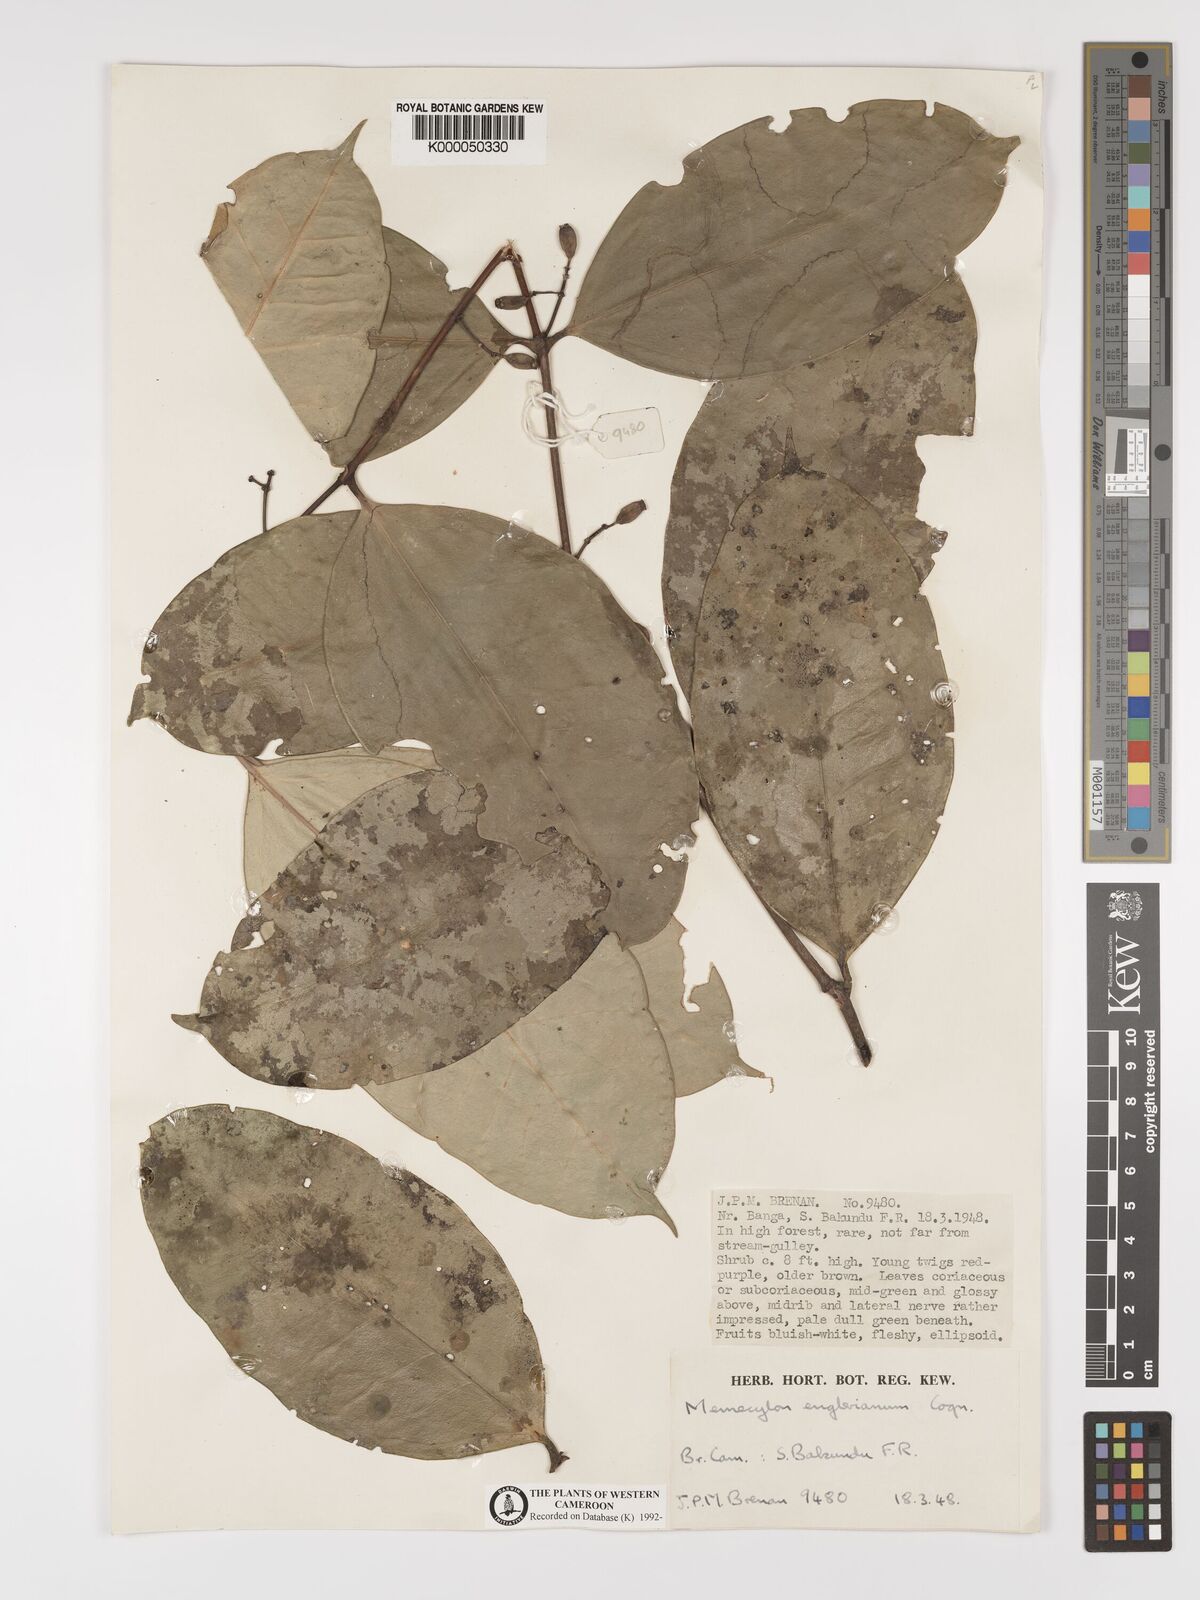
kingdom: Plantae
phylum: Tracheophyta
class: Magnoliopsida
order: Myrtales
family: Melastomataceae
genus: Memecylon
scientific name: Memecylon englerianum
